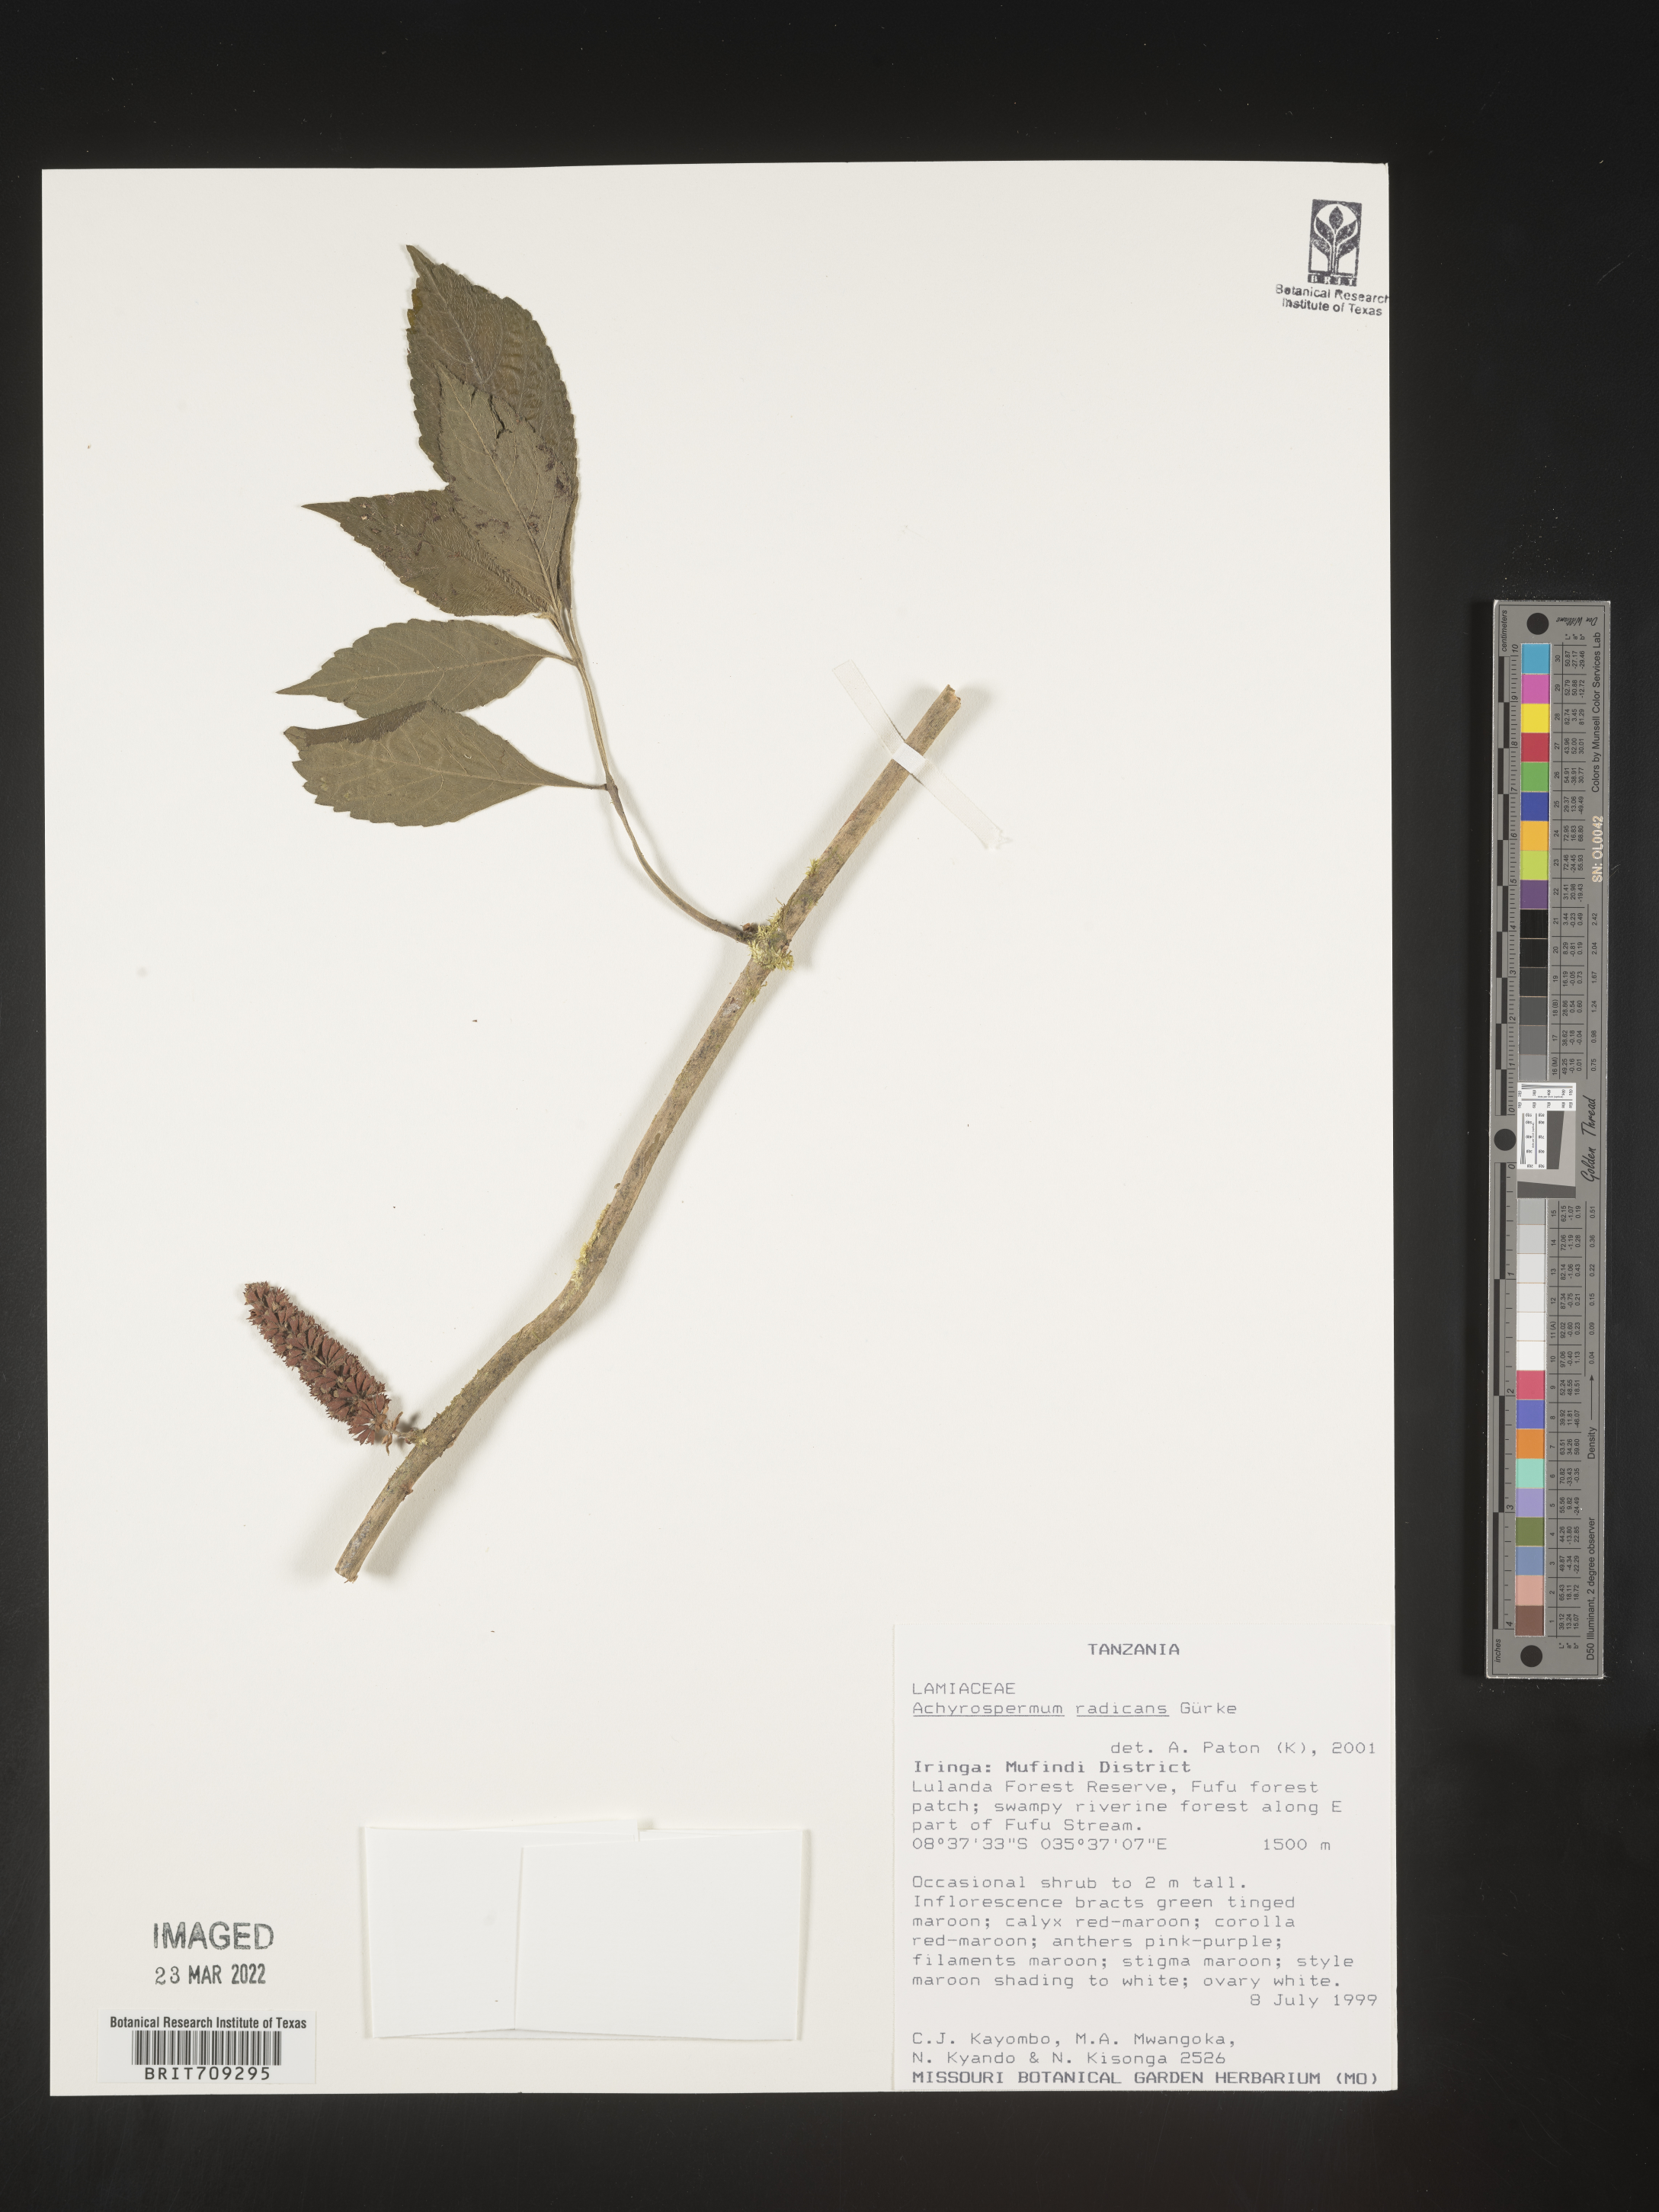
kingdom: Plantae
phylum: Tracheophyta
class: Magnoliopsida
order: Lamiales
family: Lamiaceae
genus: Achyrospermum
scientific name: Achyrospermum
